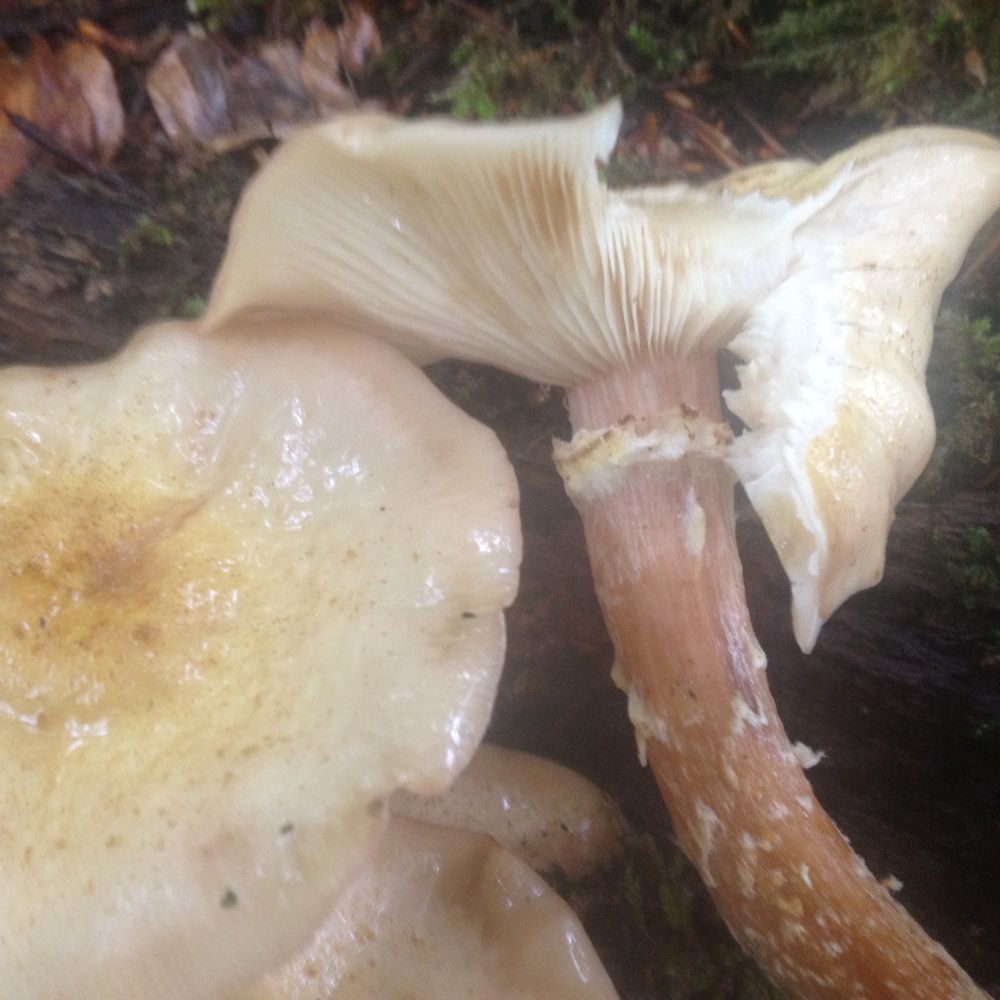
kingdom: Fungi
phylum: Basidiomycota
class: Agaricomycetes
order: Agaricales
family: Physalacriaceae
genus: Armillaria
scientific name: Armillaria lutea
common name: køllestokket honningsvamp
